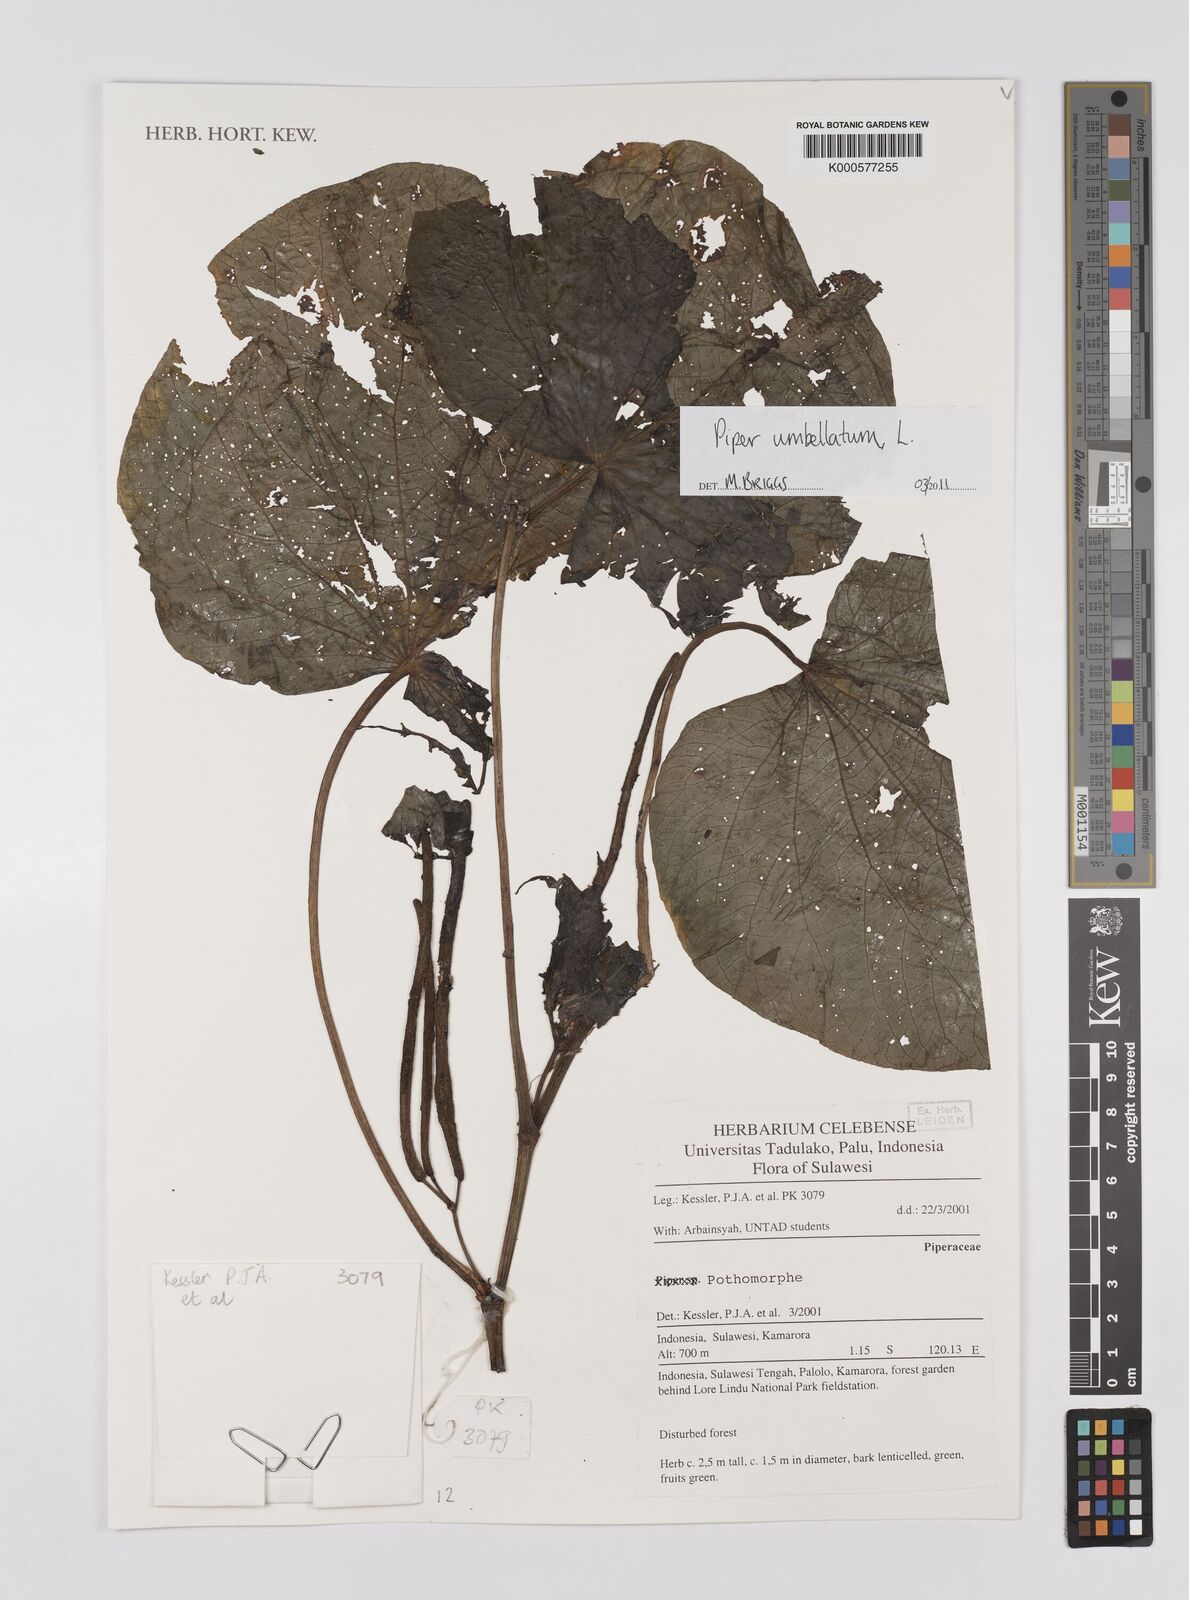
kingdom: Plantae
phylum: Tracheophyta
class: Magnoliopsida
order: Piperales
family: Piperaceae
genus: Piper
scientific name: Piper umbellatum
